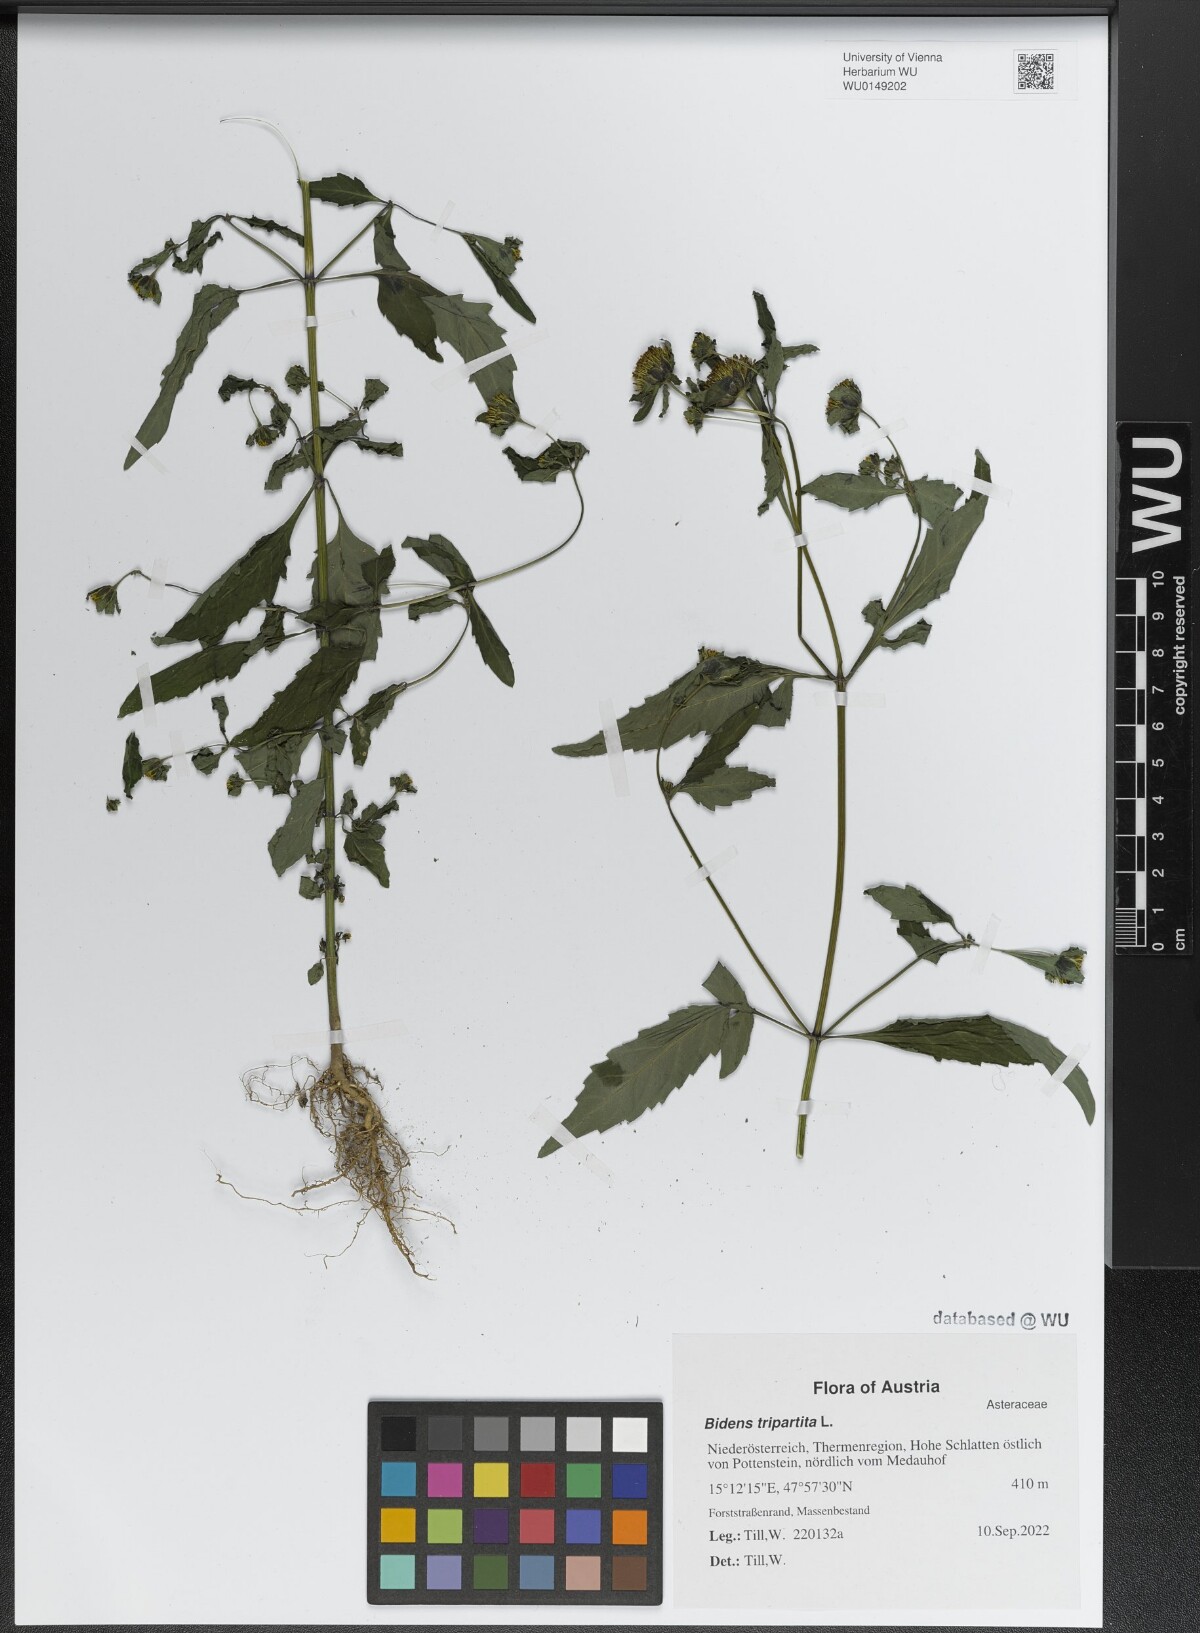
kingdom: Plantae
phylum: Tracheophyta
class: Magnoliopsida
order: Asterales
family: Asteraceae
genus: Bidens
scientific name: Bidens tripartita
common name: Trifid bur-marigold
